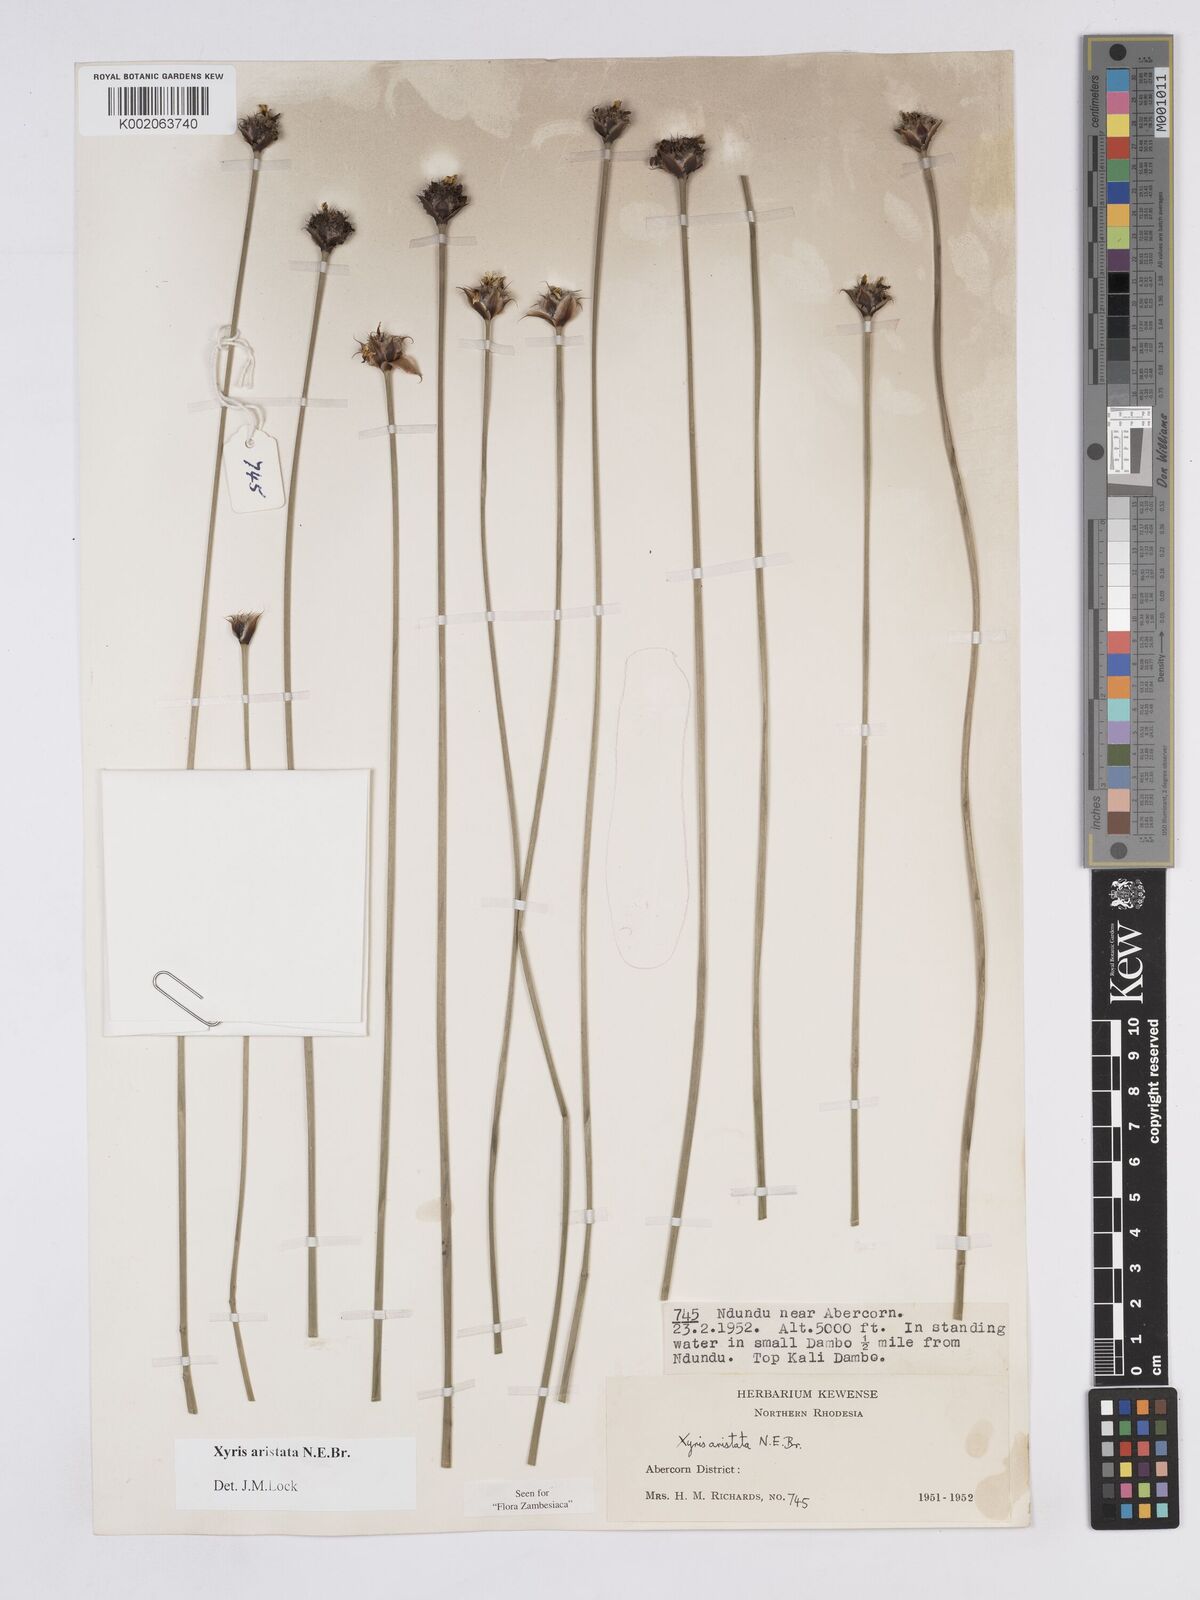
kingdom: Plantae
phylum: Tracheophyta
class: Liliopsida
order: Poales
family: Xyridaceae
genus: Xyris
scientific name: Xyris aristata
